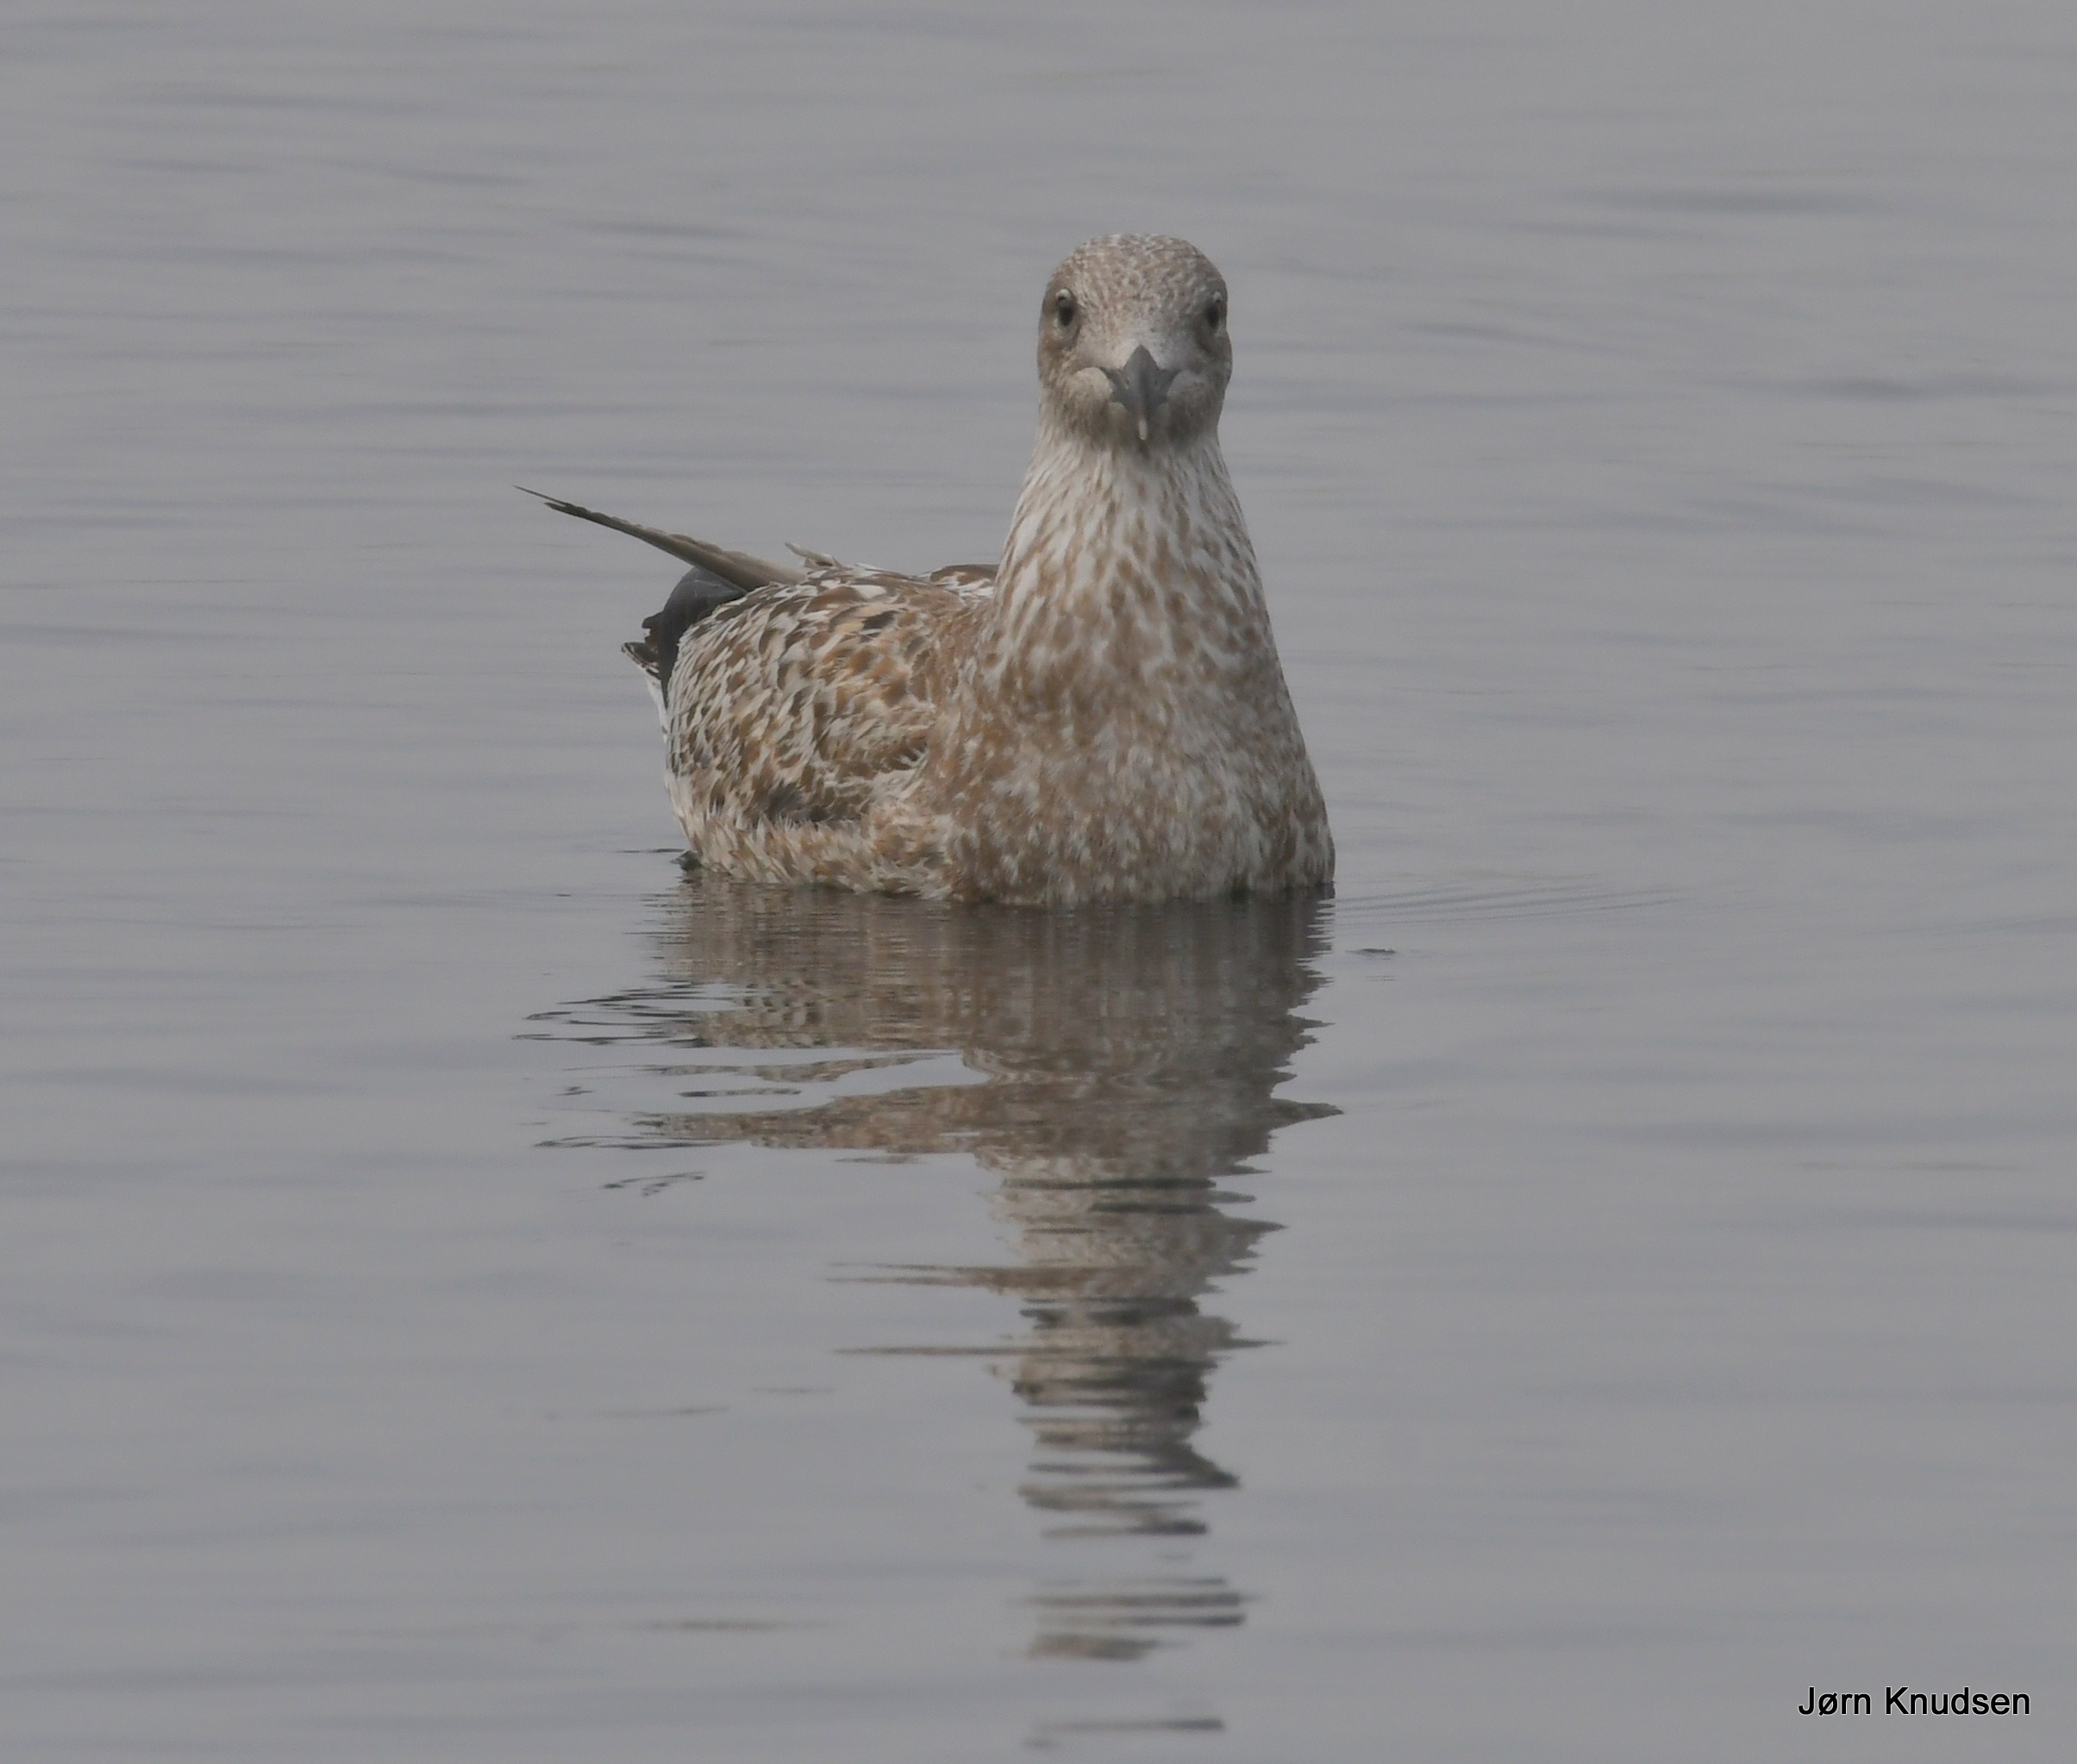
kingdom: Animalia
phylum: Chordata
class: Aves
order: Charadriiformes
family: Laridae
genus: Larus
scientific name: Larus argentatus
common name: Sølvmåge
